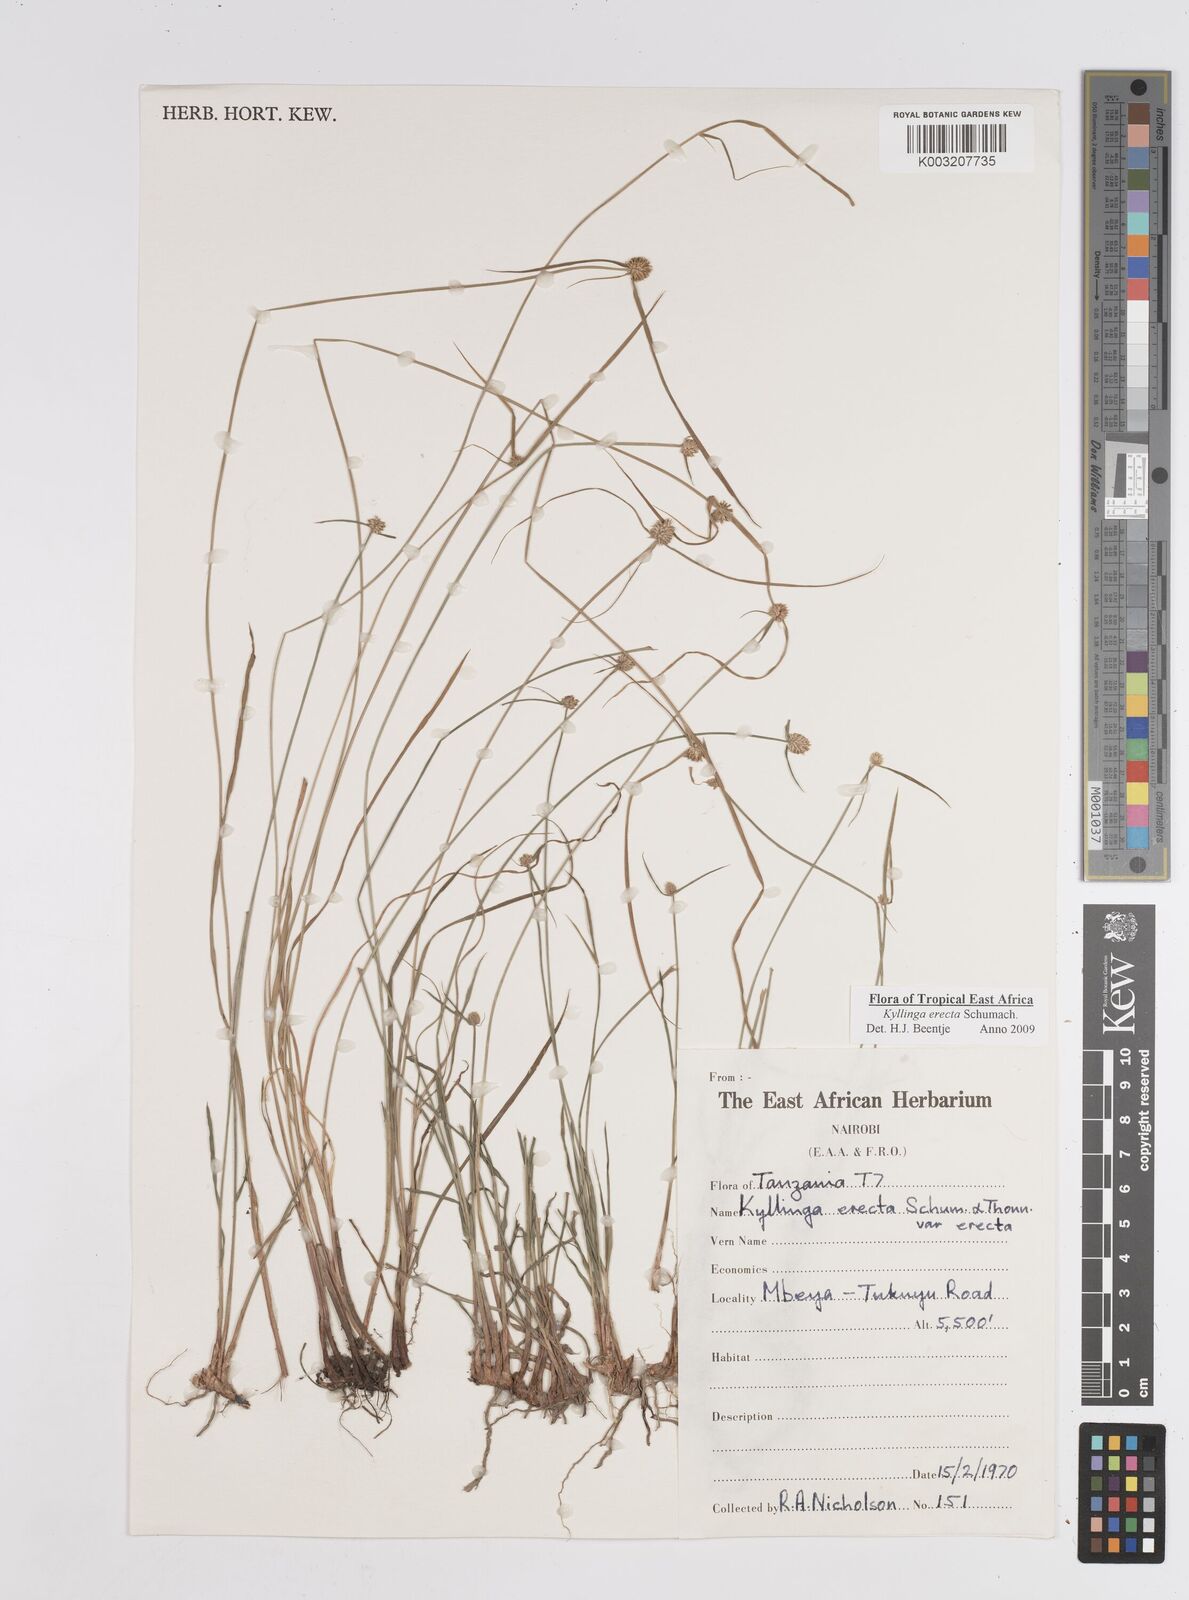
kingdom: Plantae
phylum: Tracheophyta
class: Liliopsida
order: Poales
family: Cyperaceae
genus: Cyperus
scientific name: Cyperus erectus
